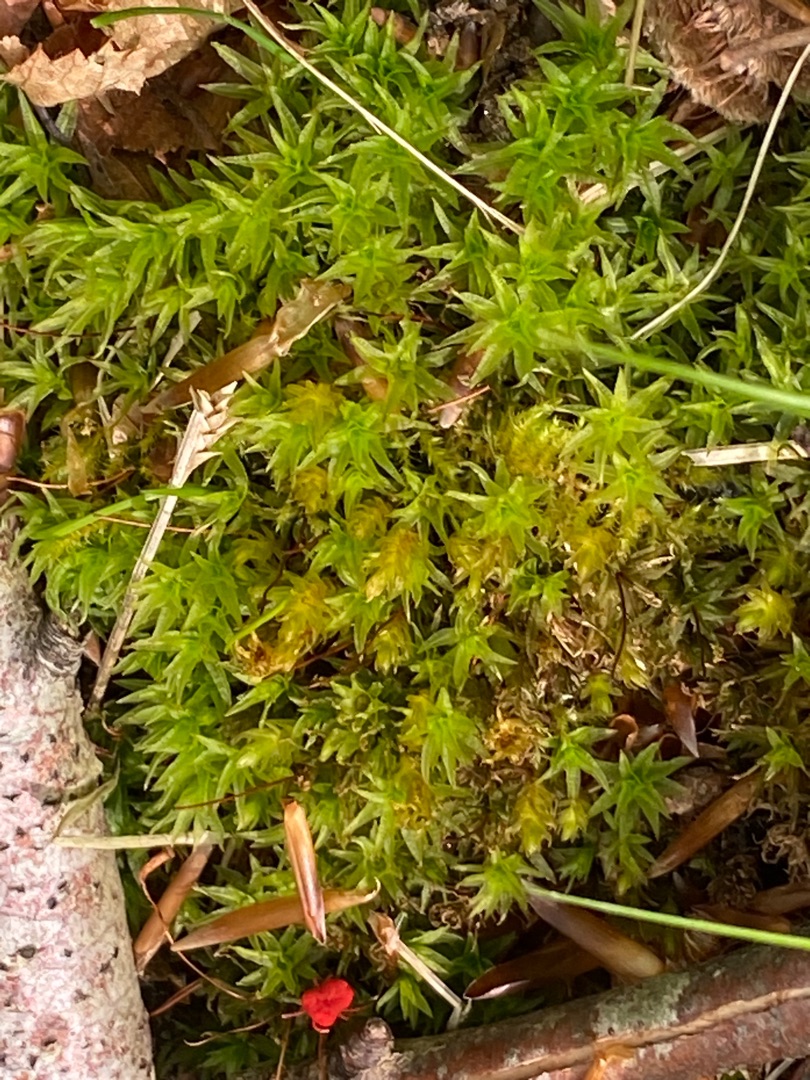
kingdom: Plantae
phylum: Bryophyta
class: Polytrichopsida
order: Polytrichales
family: Polytrichaceae
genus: Atrichum
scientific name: Atrichum undulatum
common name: Bølget katrinemos
